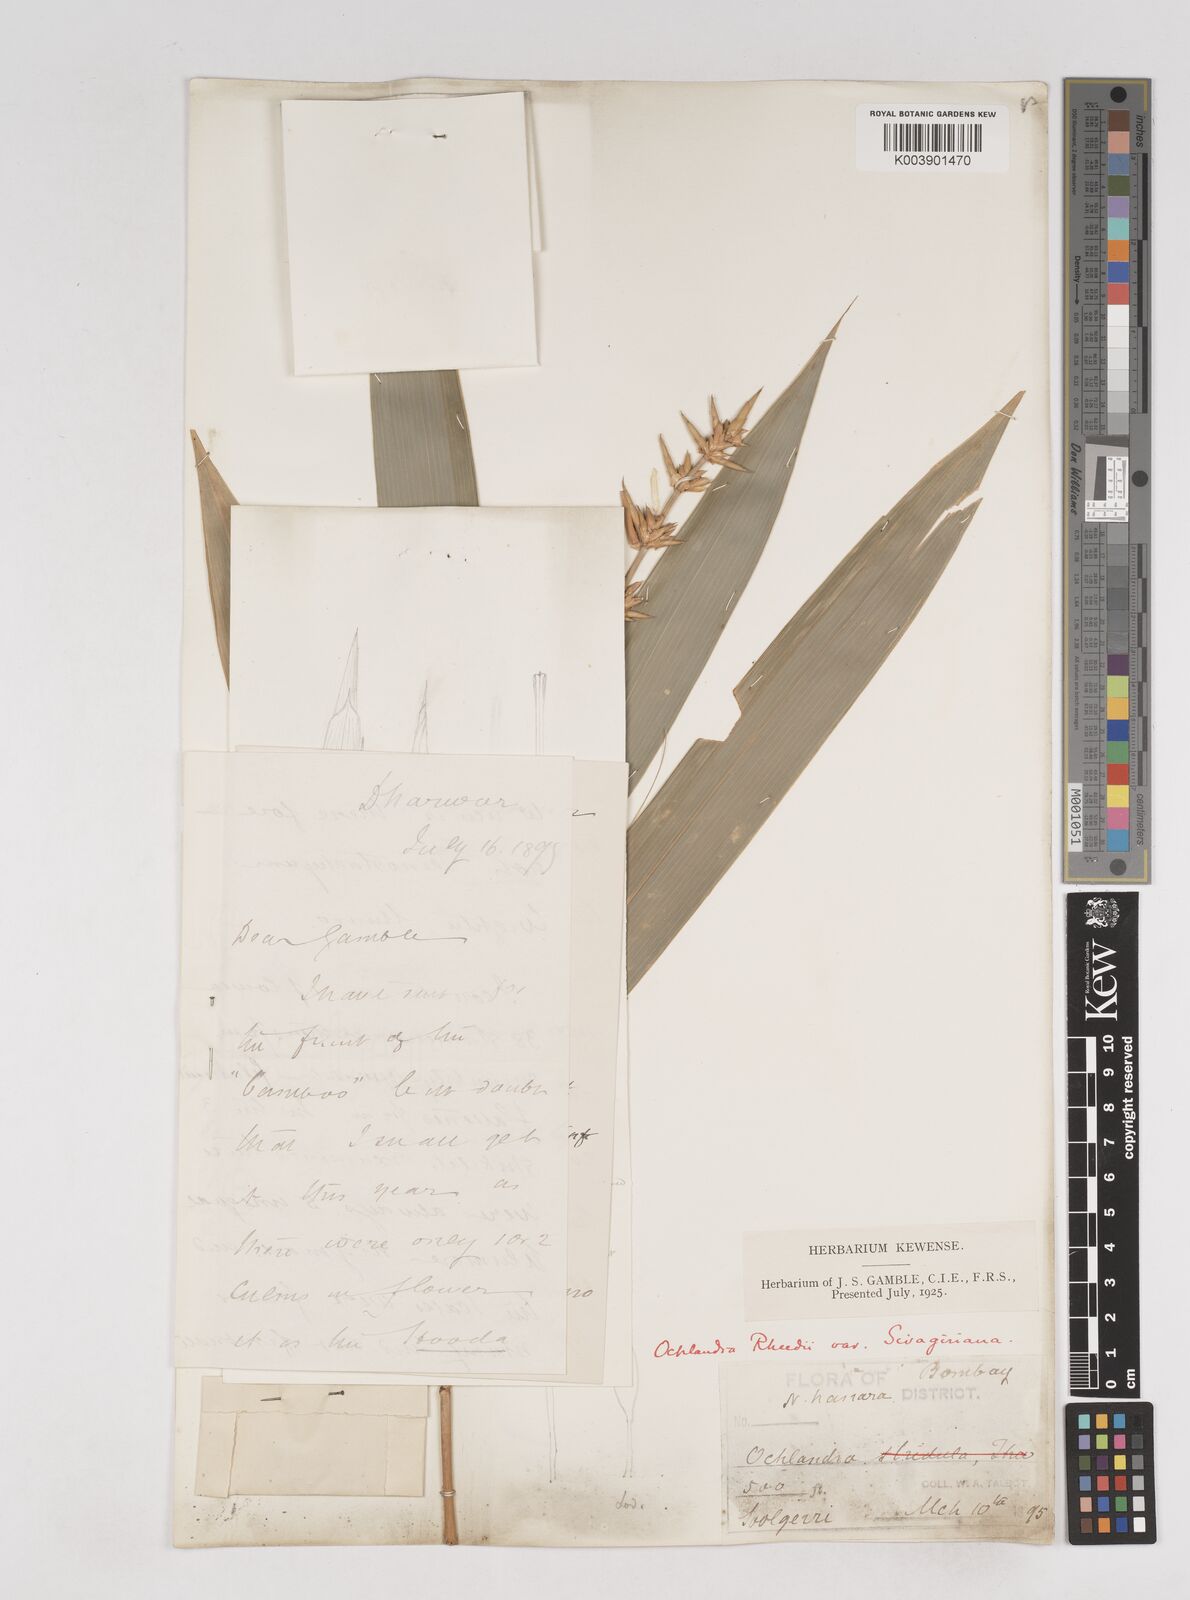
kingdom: Plantae
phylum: Tracheophyta
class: Liliopsida
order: Poales
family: Poaceae
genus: Ochlandra
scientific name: Ochlandra scriptoria
